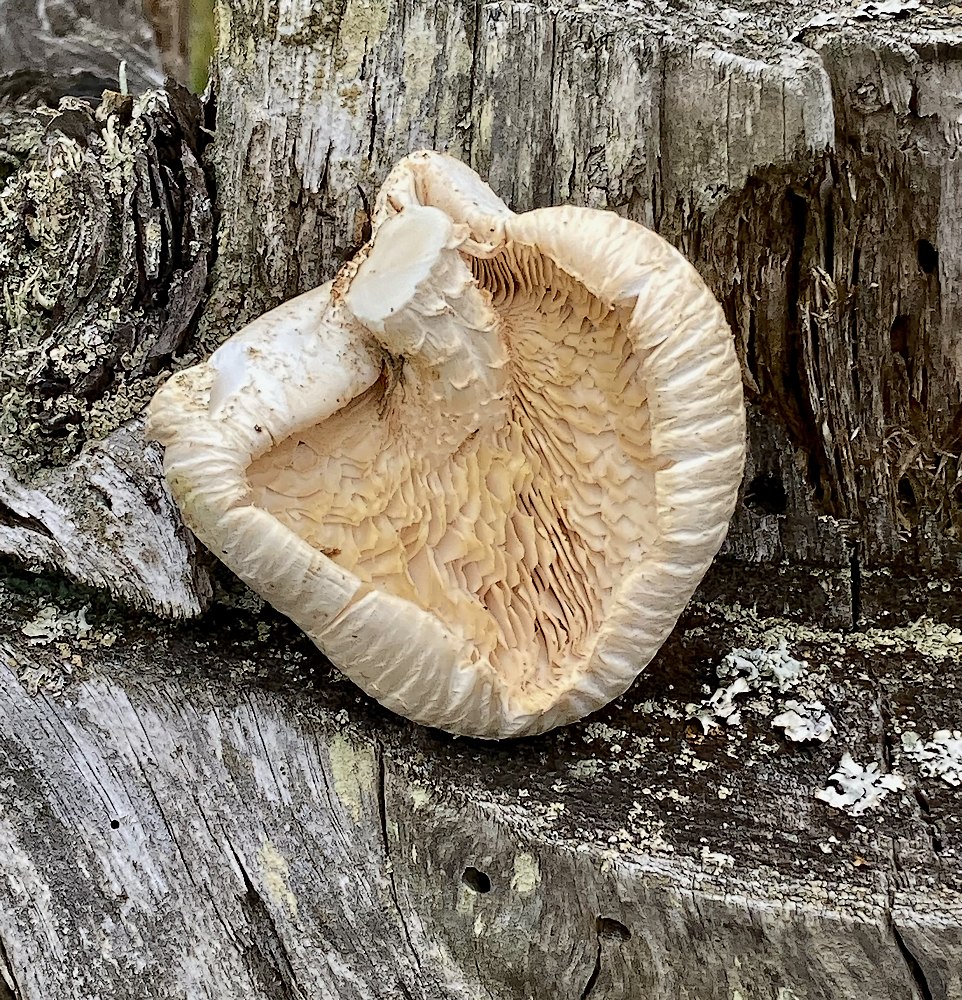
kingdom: Fungi
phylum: Basidiomycota
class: Agaricomycetes
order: Gloeophyllales
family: Gloeophyllaceae
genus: Neolentinus
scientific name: Neolentinus lepideus
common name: skællet sejhat
